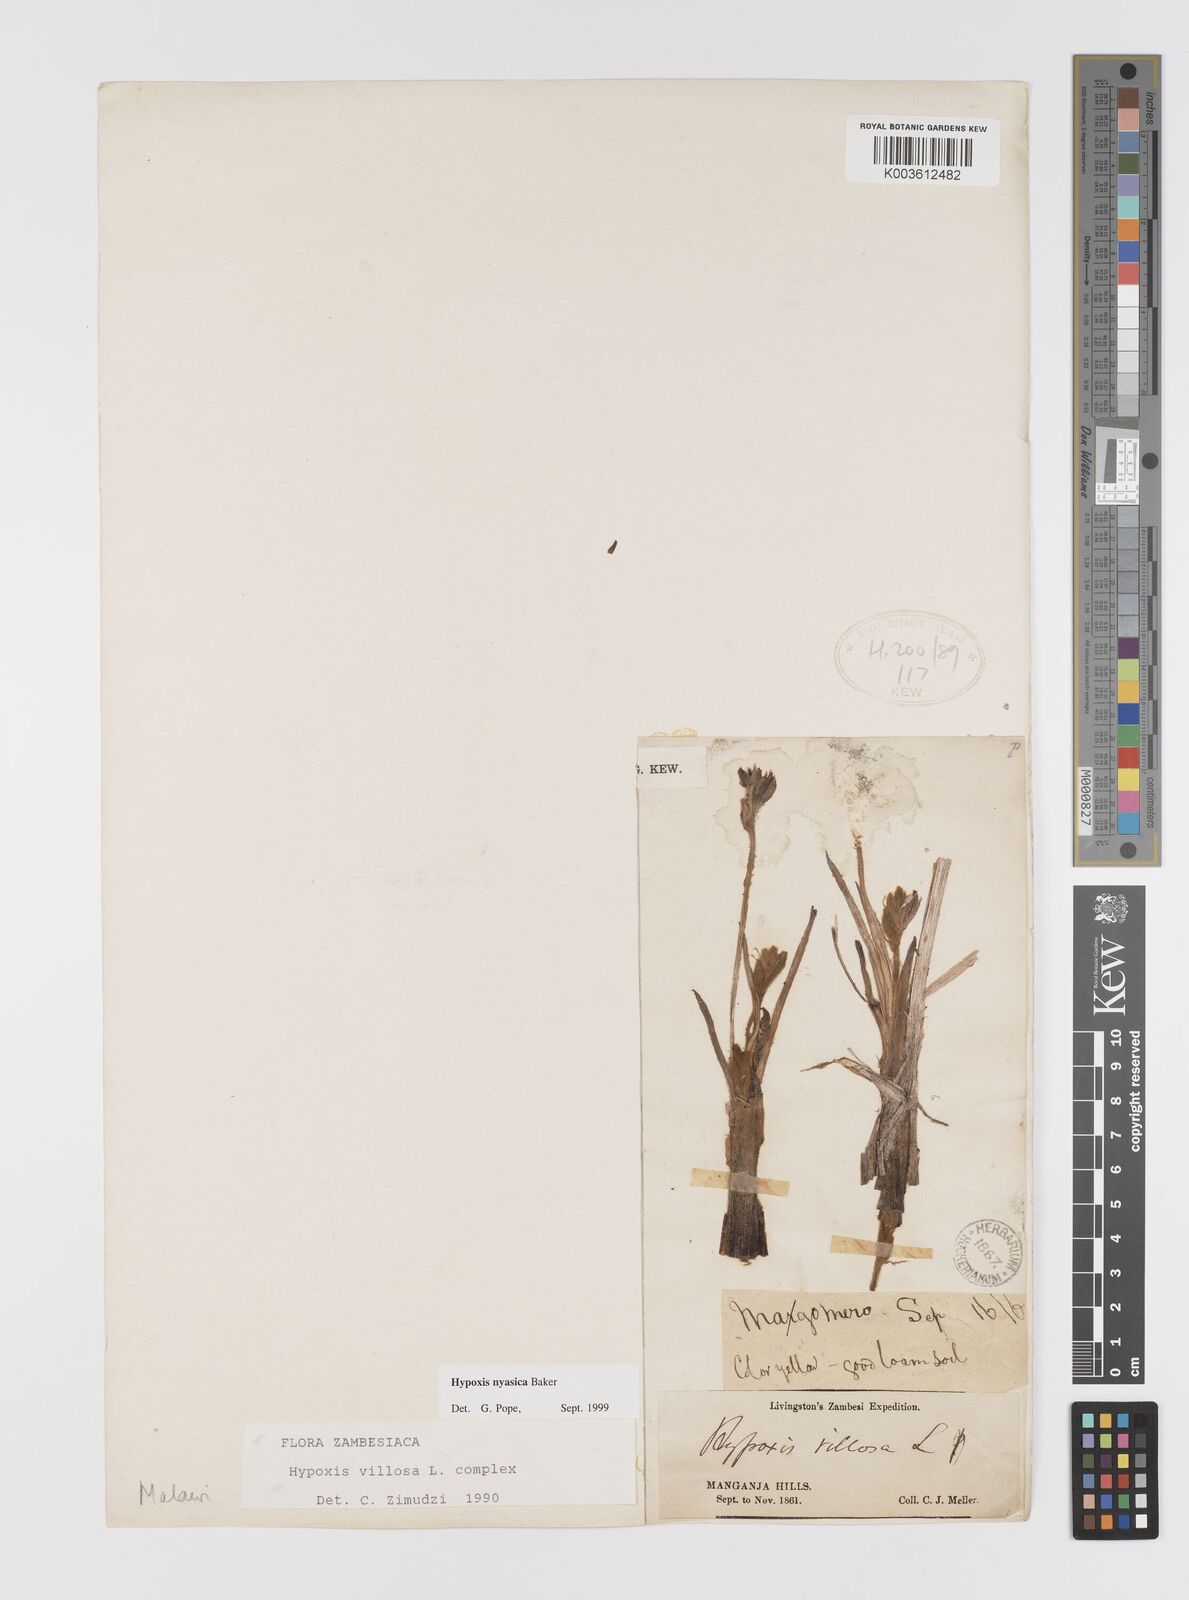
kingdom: Plantae
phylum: Tracheophyta
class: Liliopsida
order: Asparagales
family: Hypoxidaceae
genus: Hypoxis
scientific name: Hypoxis nyasica
